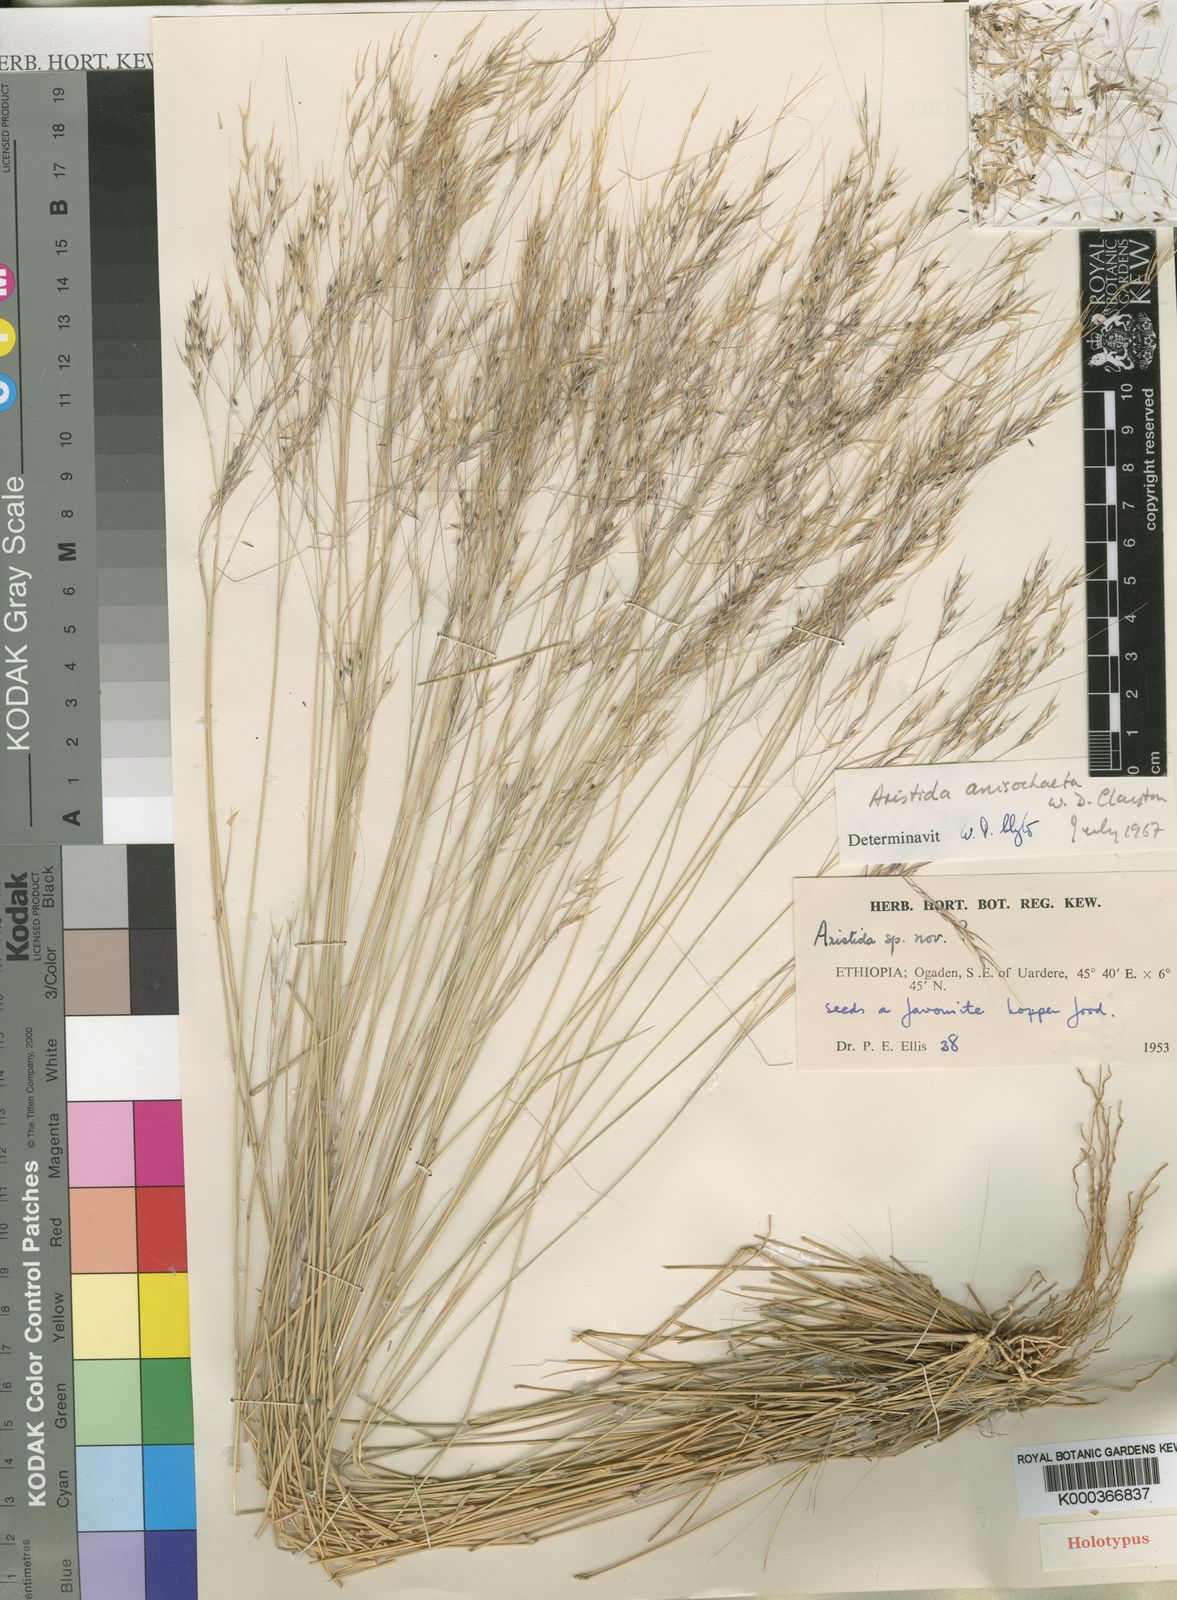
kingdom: Plantae
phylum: Tracheophyta
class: Liliopsida
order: Poales
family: Poaceae
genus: Aristida
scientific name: Aristida anisochaeta
